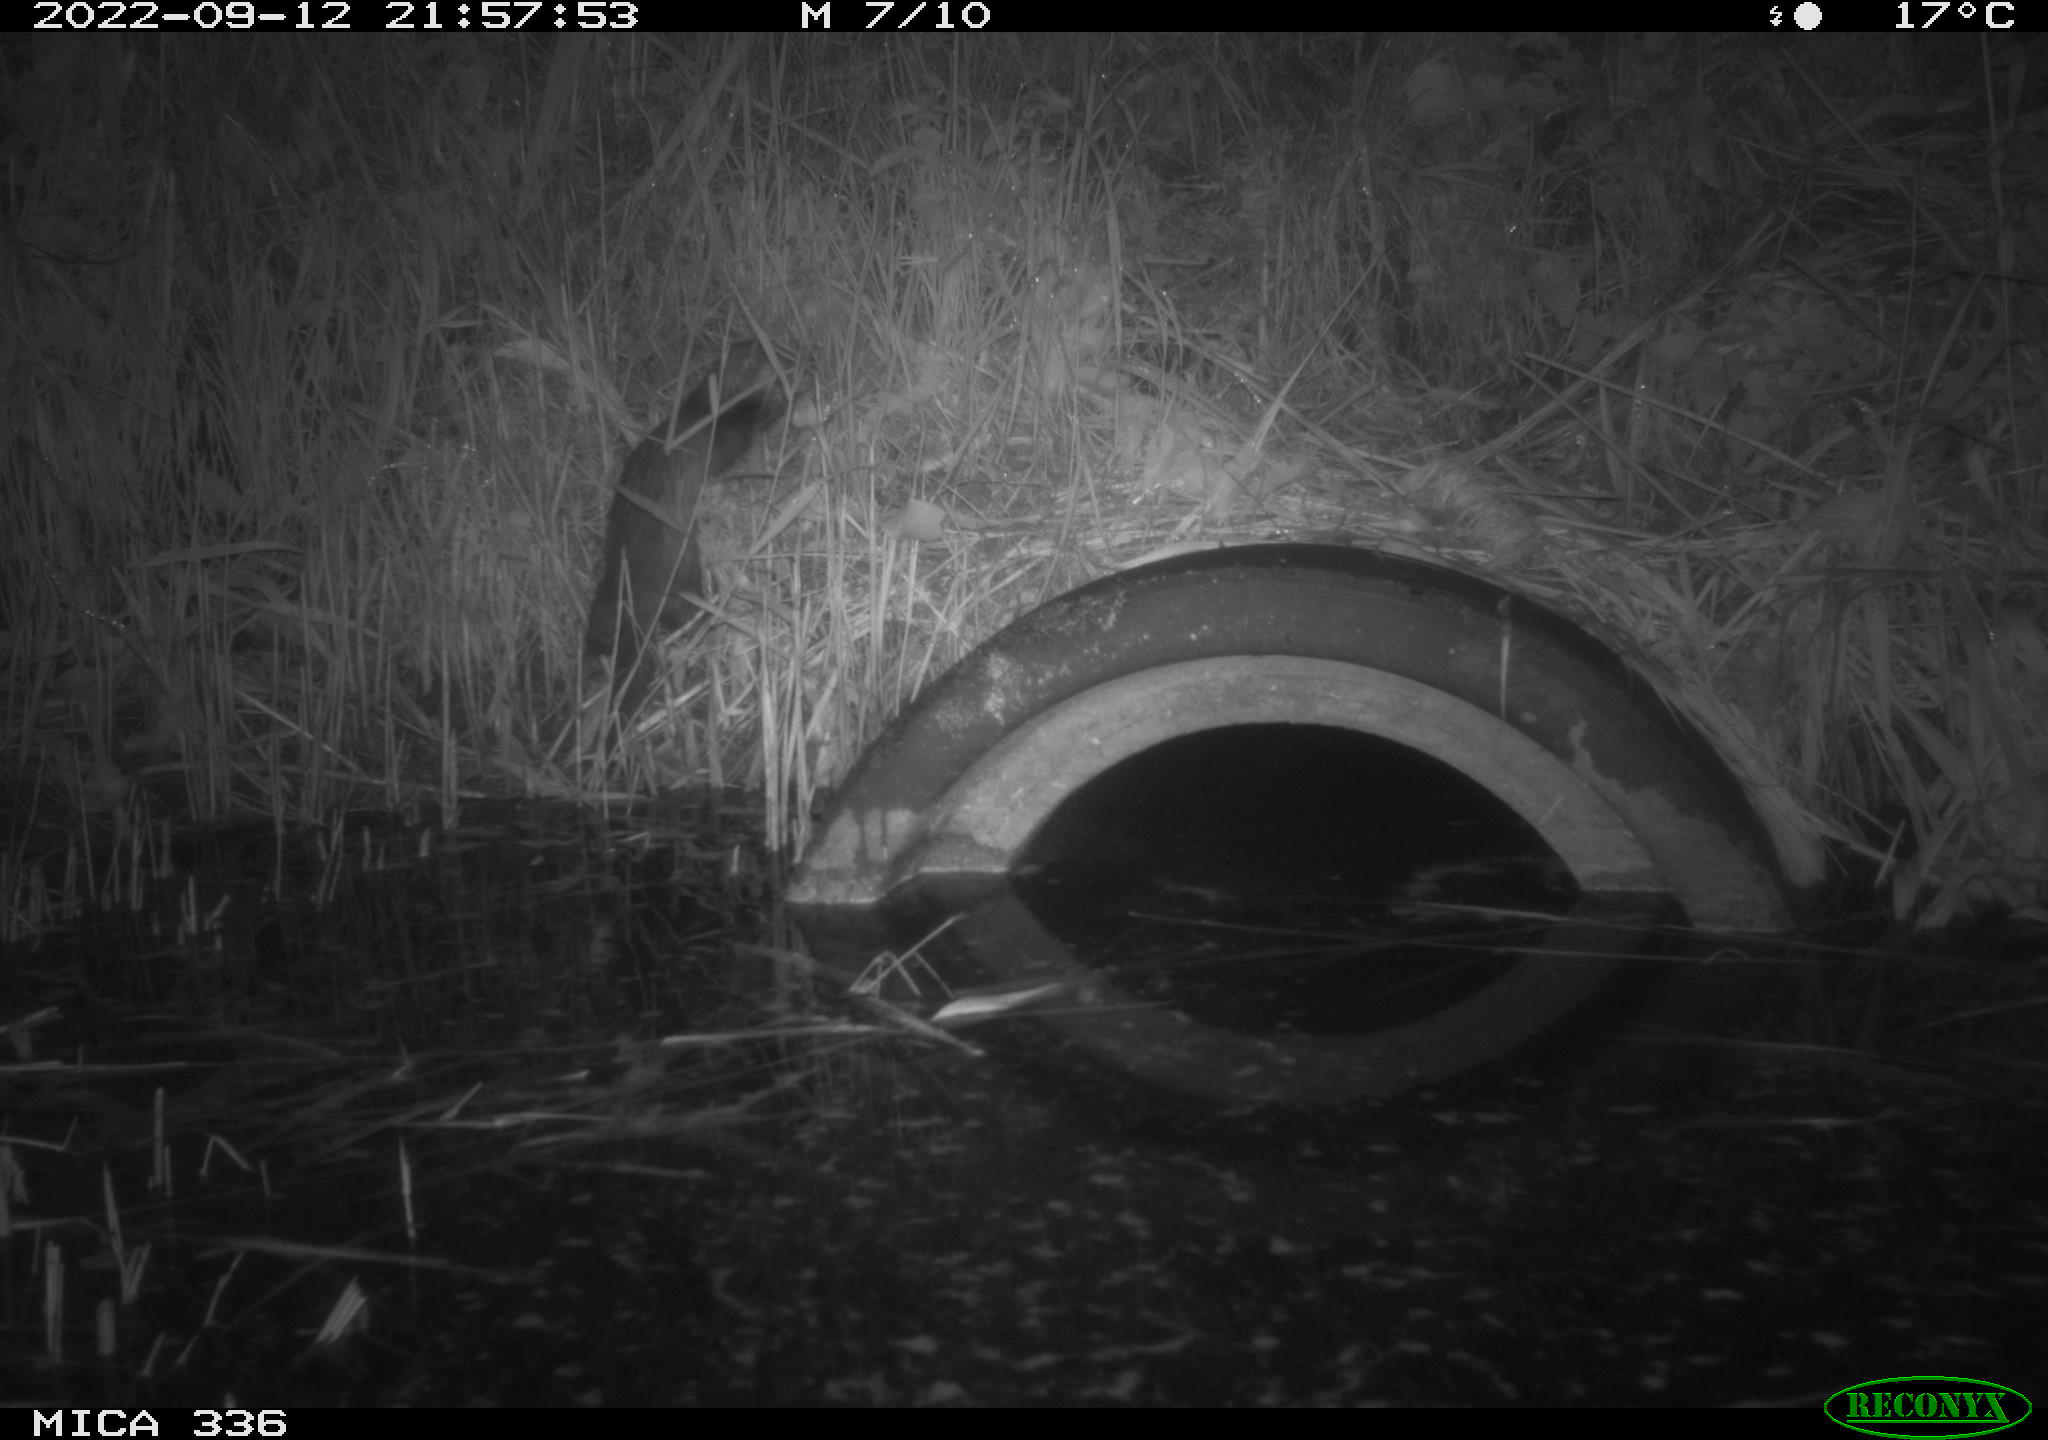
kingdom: Animalia
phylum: Chordata
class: Mammalia
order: Carnivora
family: Mustelidae
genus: Mustela
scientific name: Mustela putorius
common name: European polecat
